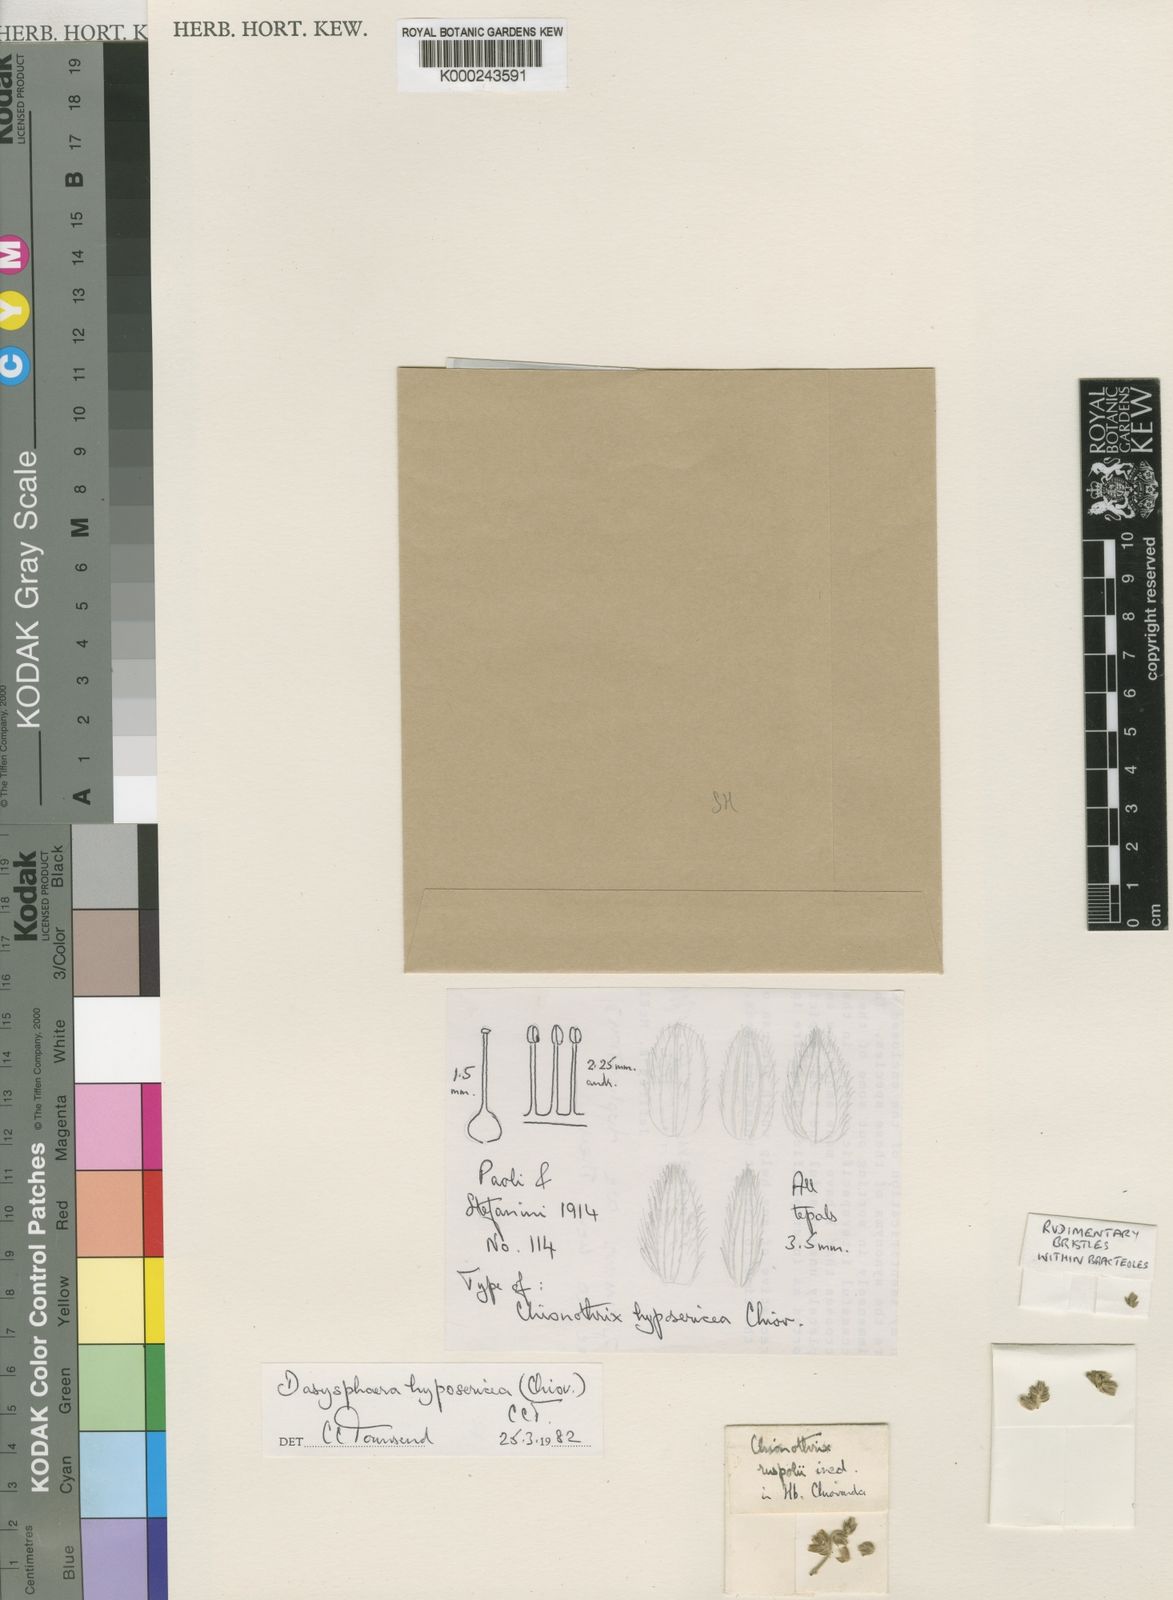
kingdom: Plantae
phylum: Tracheophyta
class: Magnoliopsida
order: Caryophyllales
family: Amaranthaceae
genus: Dasysphaera
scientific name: Dasysphaera hyposericea
